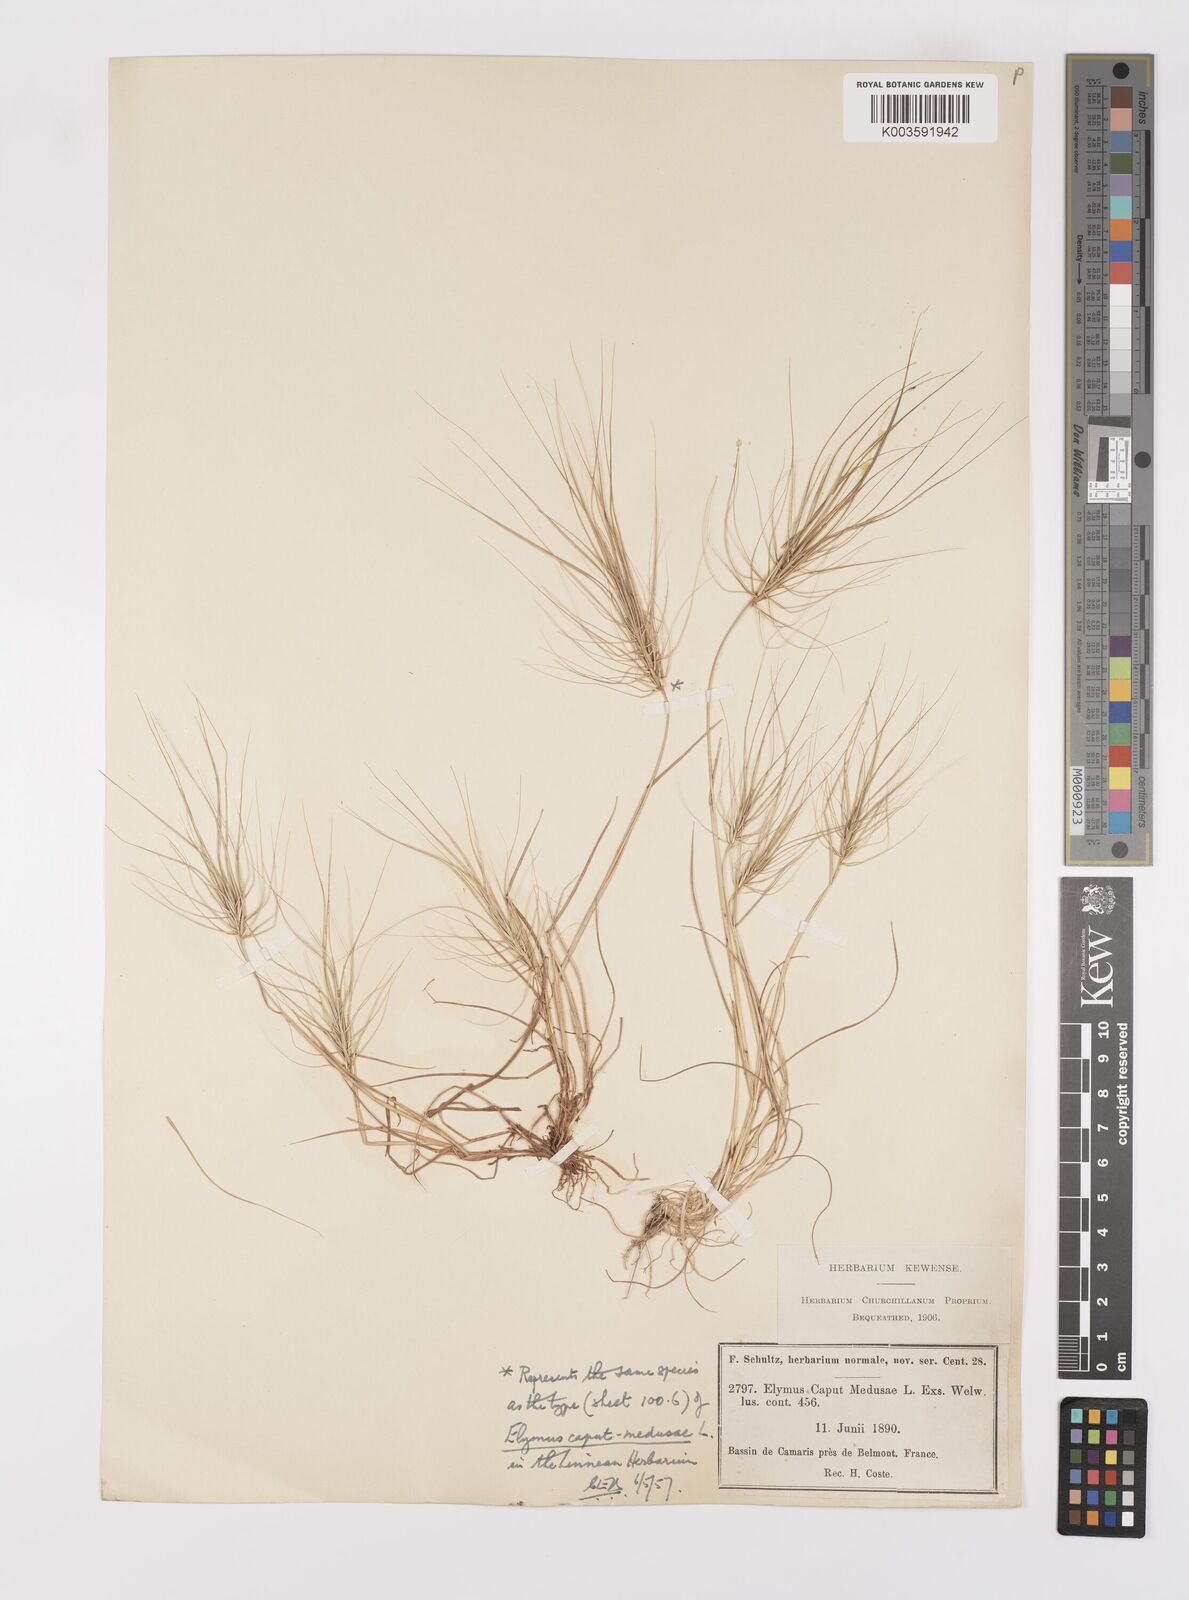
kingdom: Plantae
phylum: Tracheophyta
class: Liliopsida
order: Poales
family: Poaceae
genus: Taeniatherum
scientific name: Taeniatherum caput-medusae
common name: Medusahead
